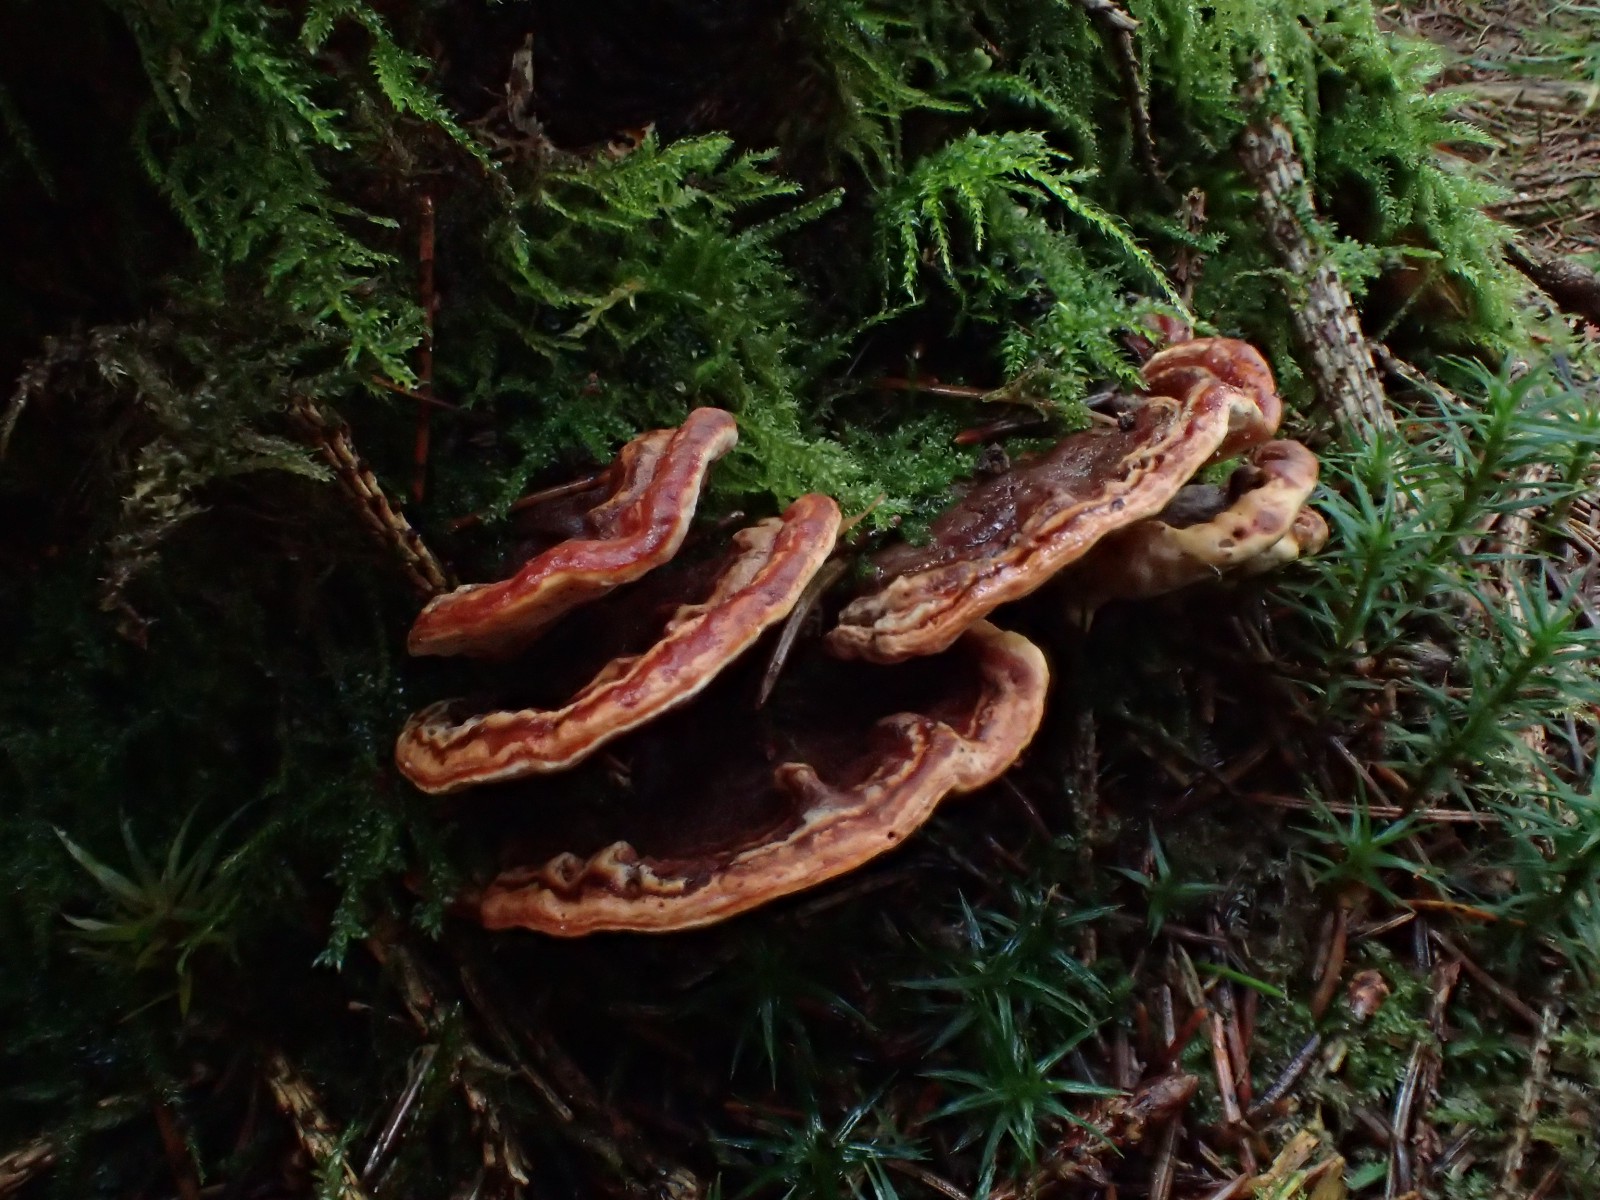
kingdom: Fungi
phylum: Basidiomycota
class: Agaricomycetes
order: Russulales
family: Bondarzewiaceae
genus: Heterobasidion
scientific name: Heterobasidion parviporum
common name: småporet rodfordærver
